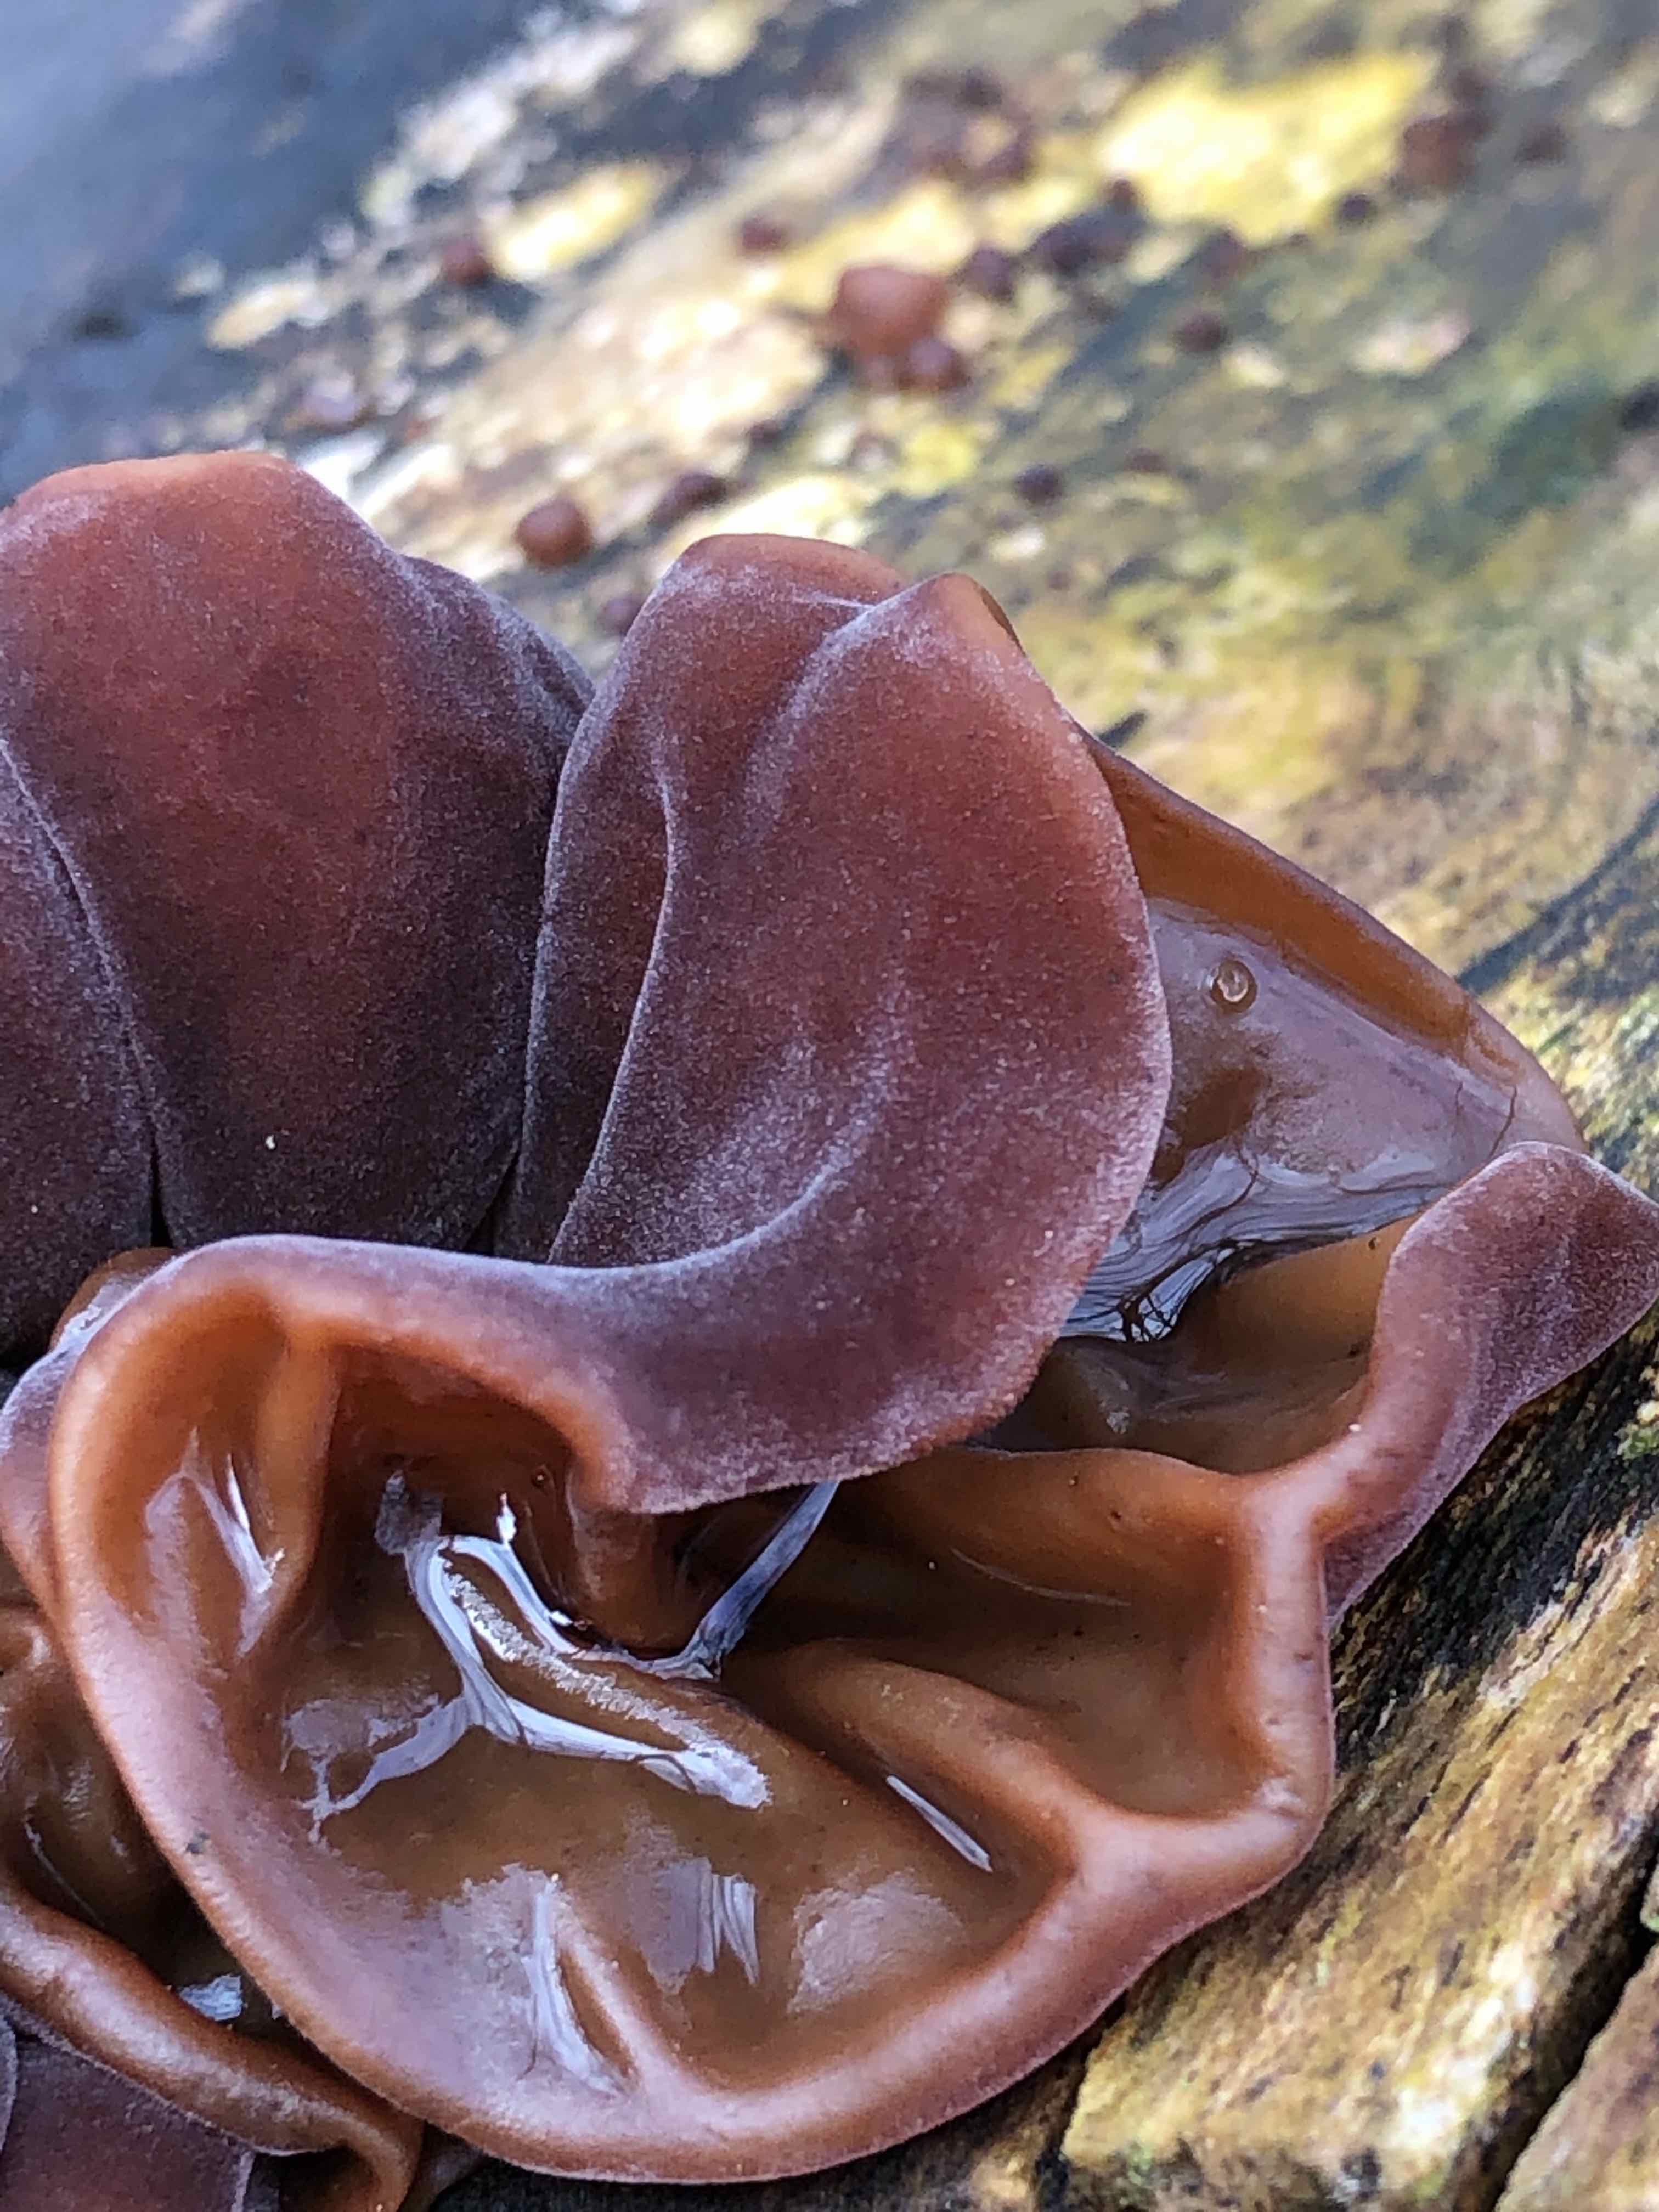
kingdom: Fungi
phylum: Basidiomycota
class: Agaricomycetes
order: Auriculariales
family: Auriculariaceae
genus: Auricularia
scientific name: Auricularia auricula-judae
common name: almindelig judasøre
